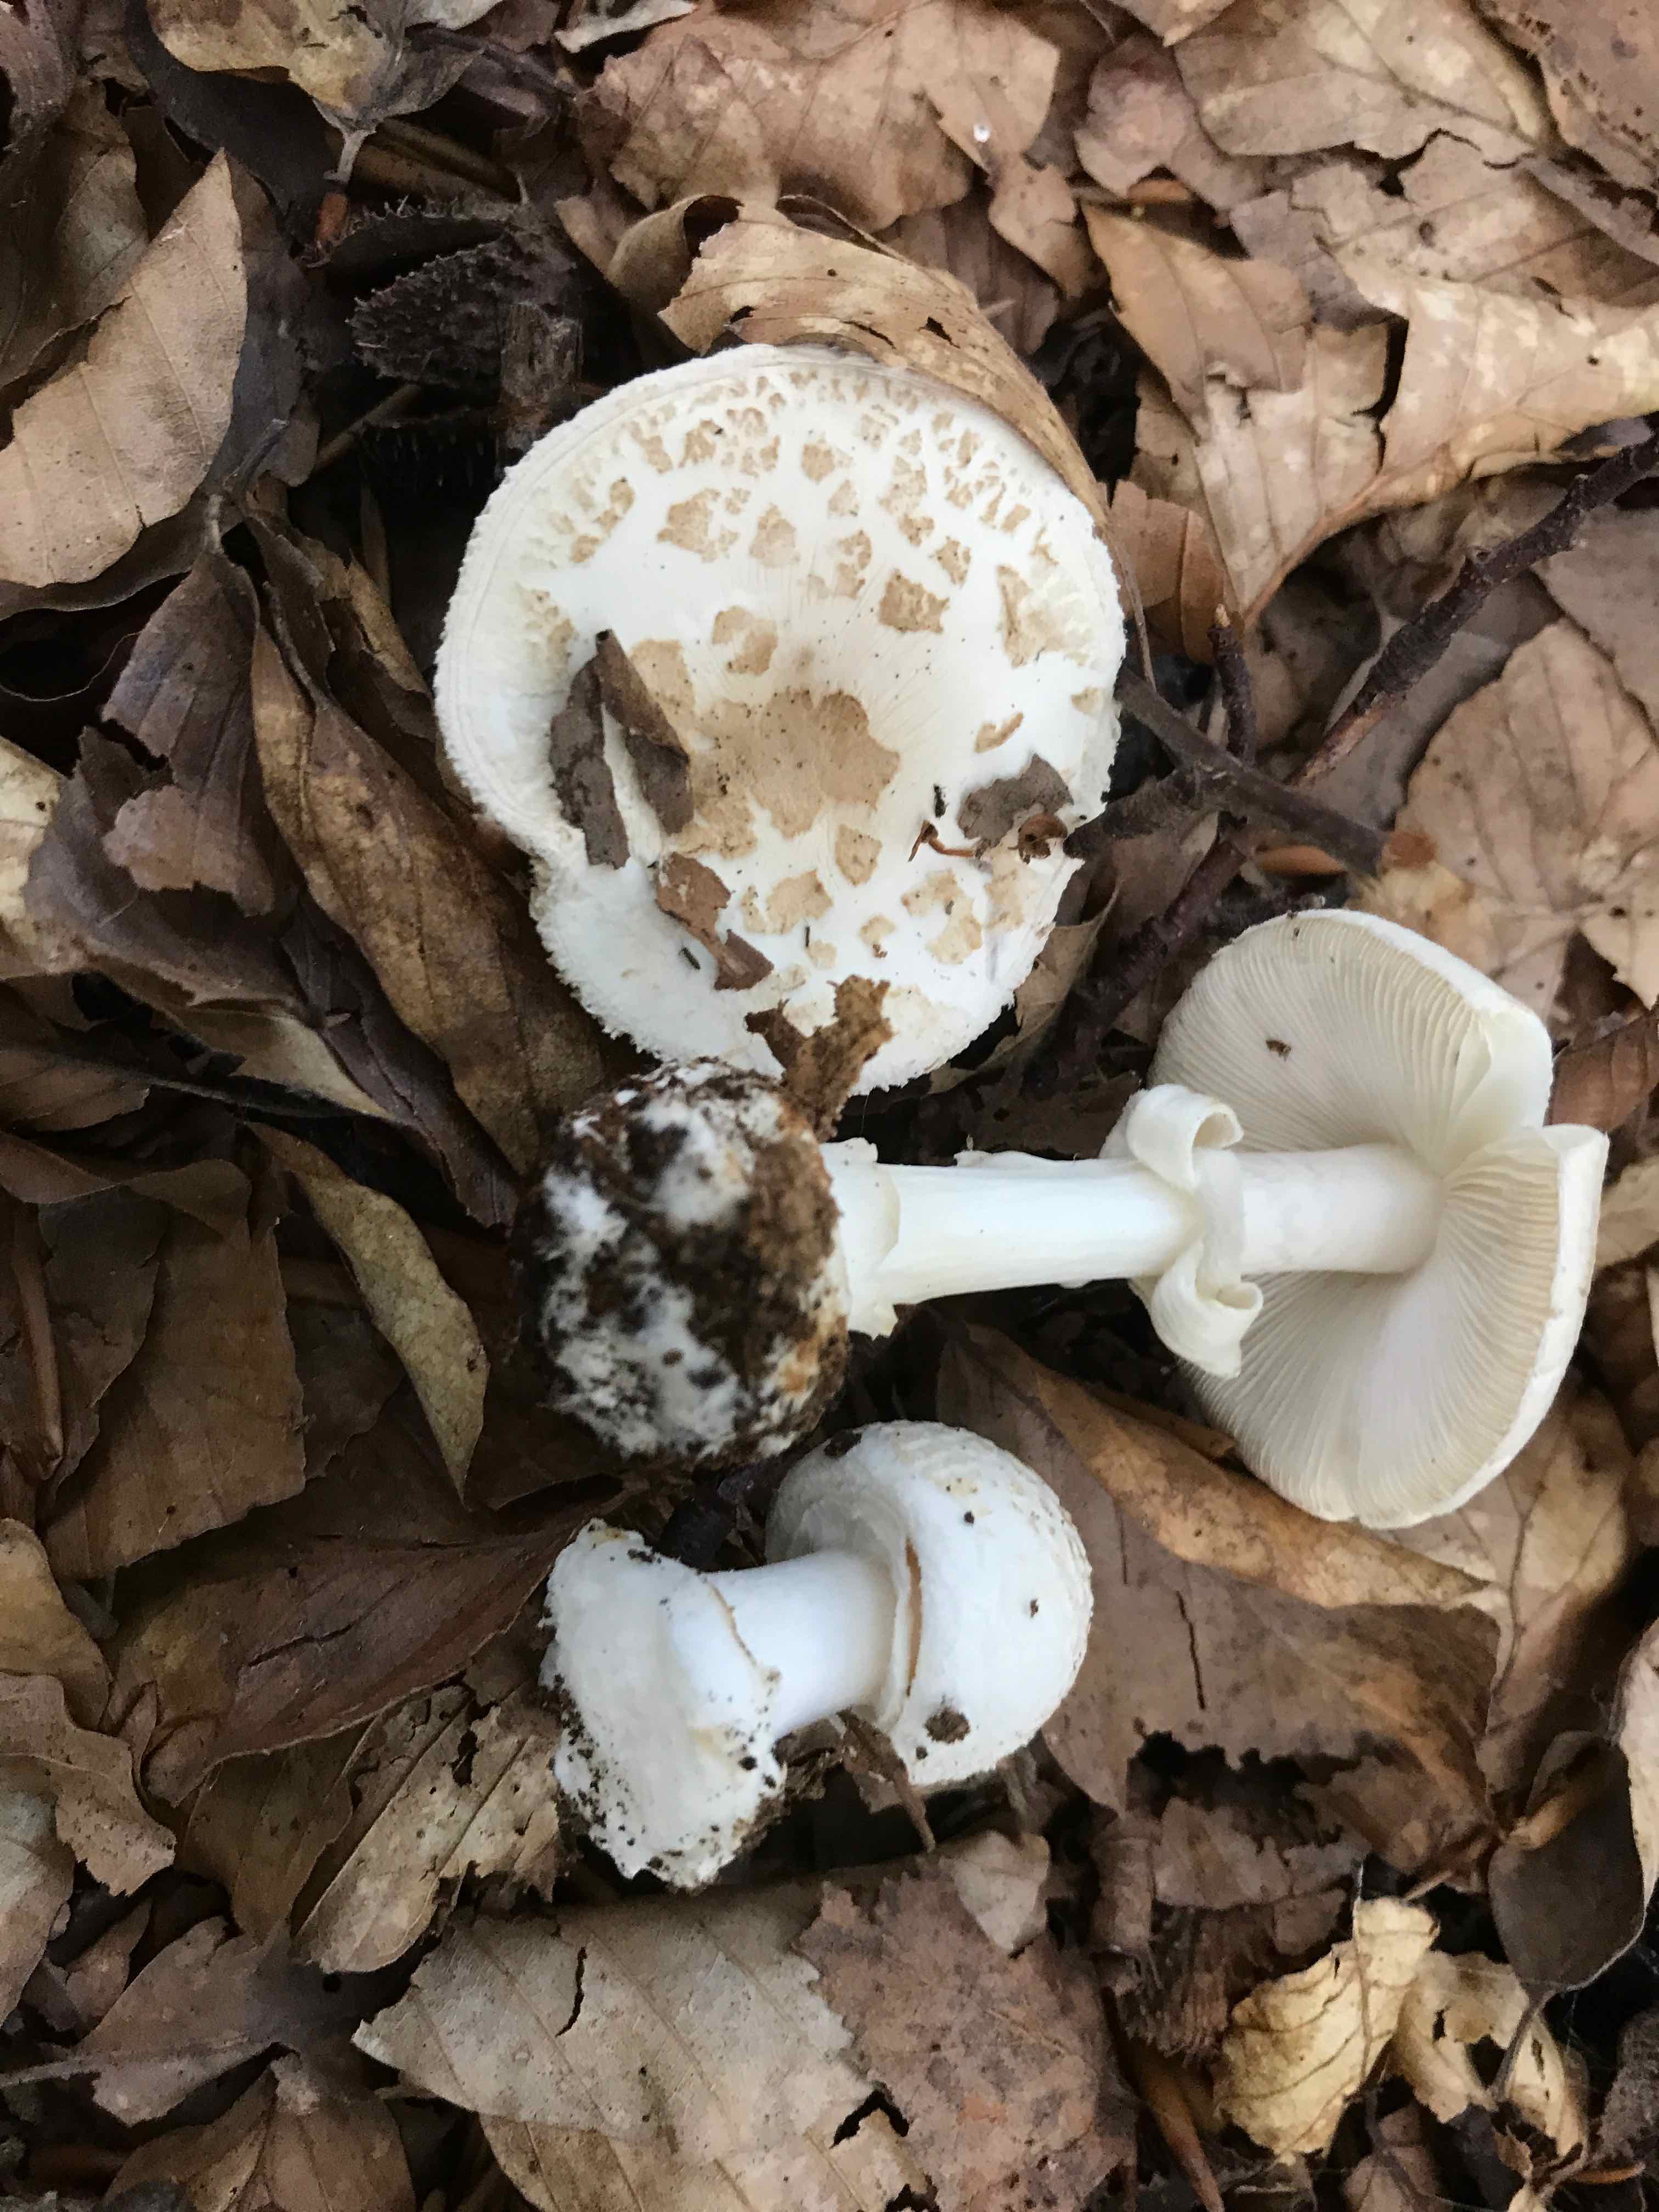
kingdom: Fungi
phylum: Basidiomycota
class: Agaricomycetes
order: Agaricales
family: Amanitaceae
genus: Amanita
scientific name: Amanita citrina
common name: False death-cap
